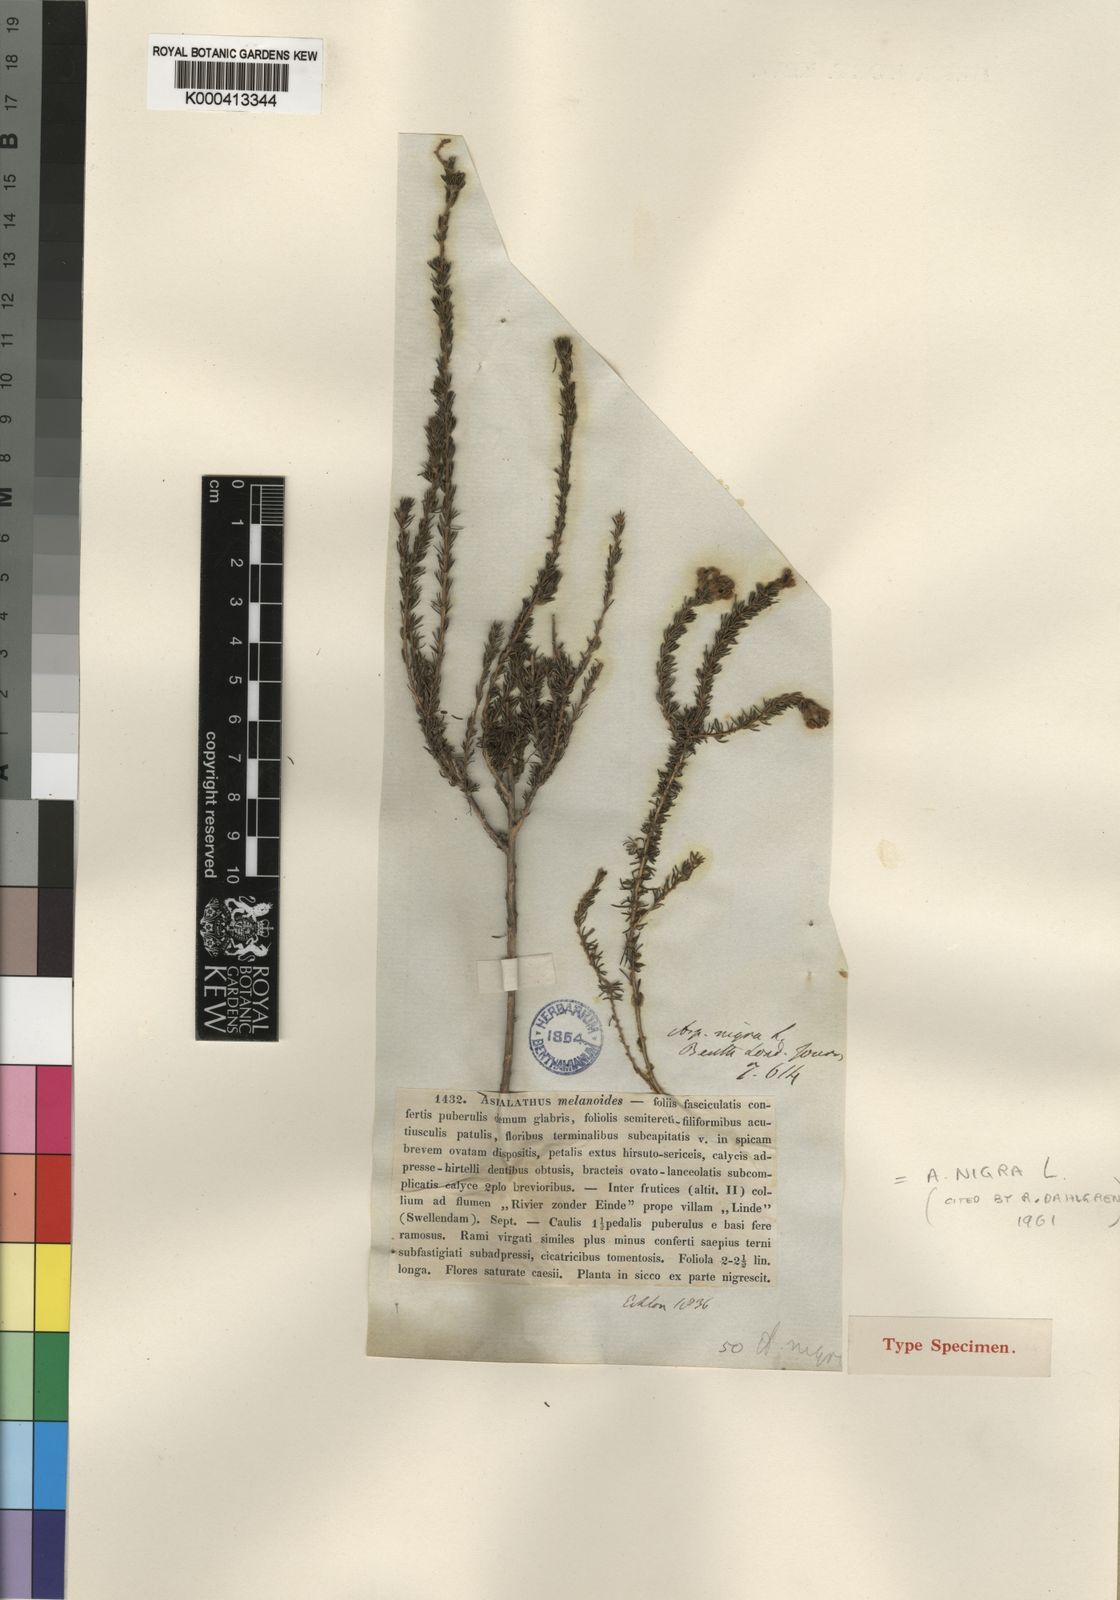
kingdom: Plantae
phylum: Tracheophyta
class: Magnoliopsida
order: Fabales
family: Fabaceae
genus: Aspalathus
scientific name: Aspalathus nigra
